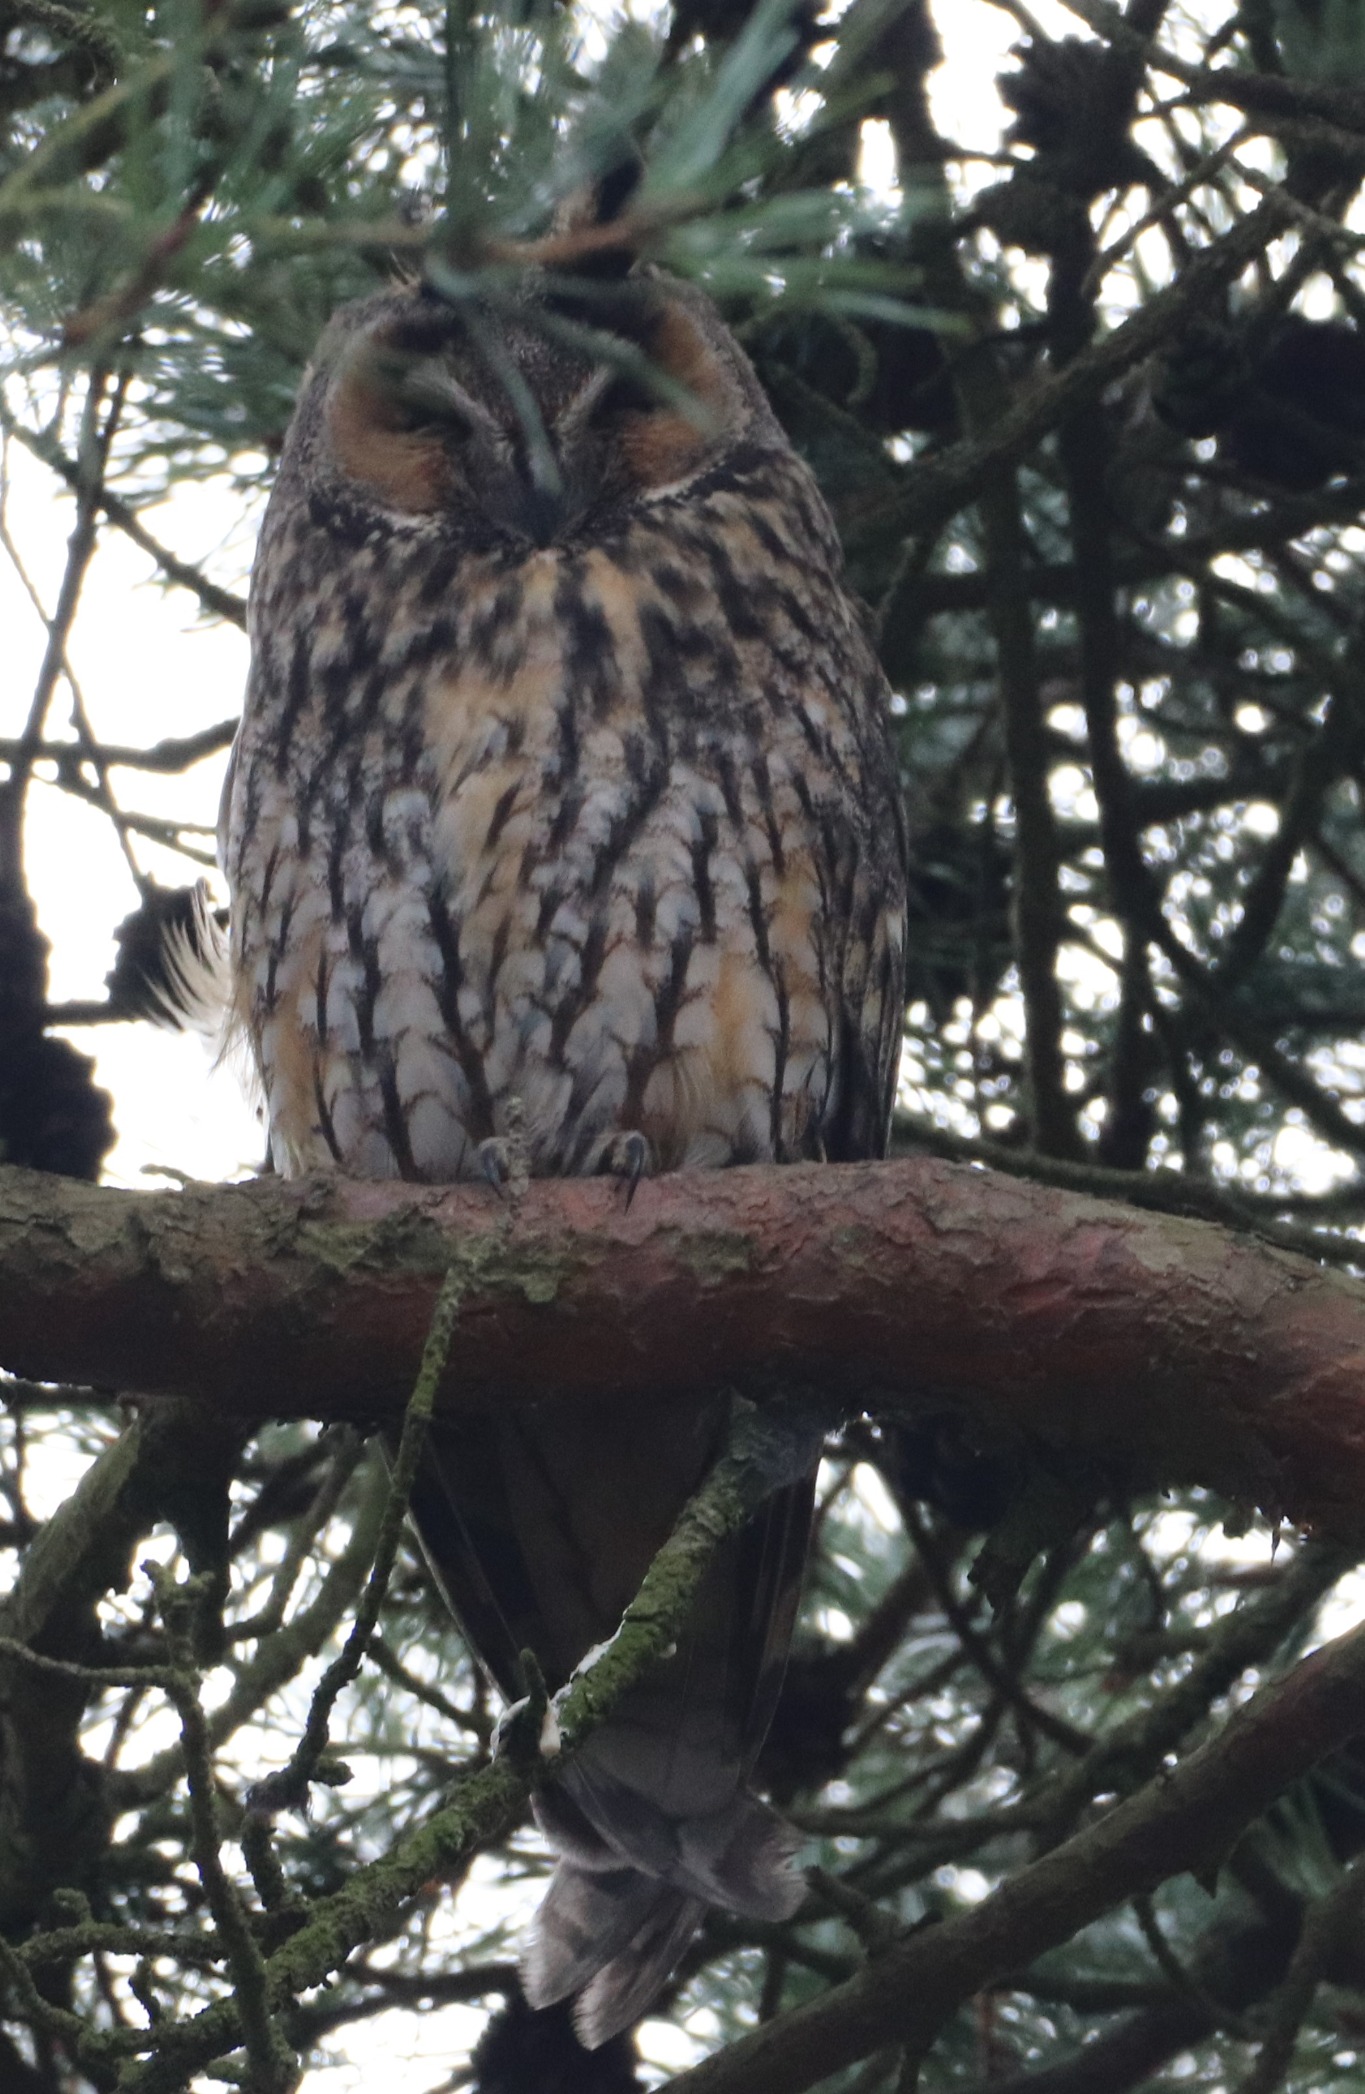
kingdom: Animalia
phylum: Chordata
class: Aves
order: Strigiformes
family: Strigidae
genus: Asio
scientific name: Asio otus
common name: Skovhornugle
